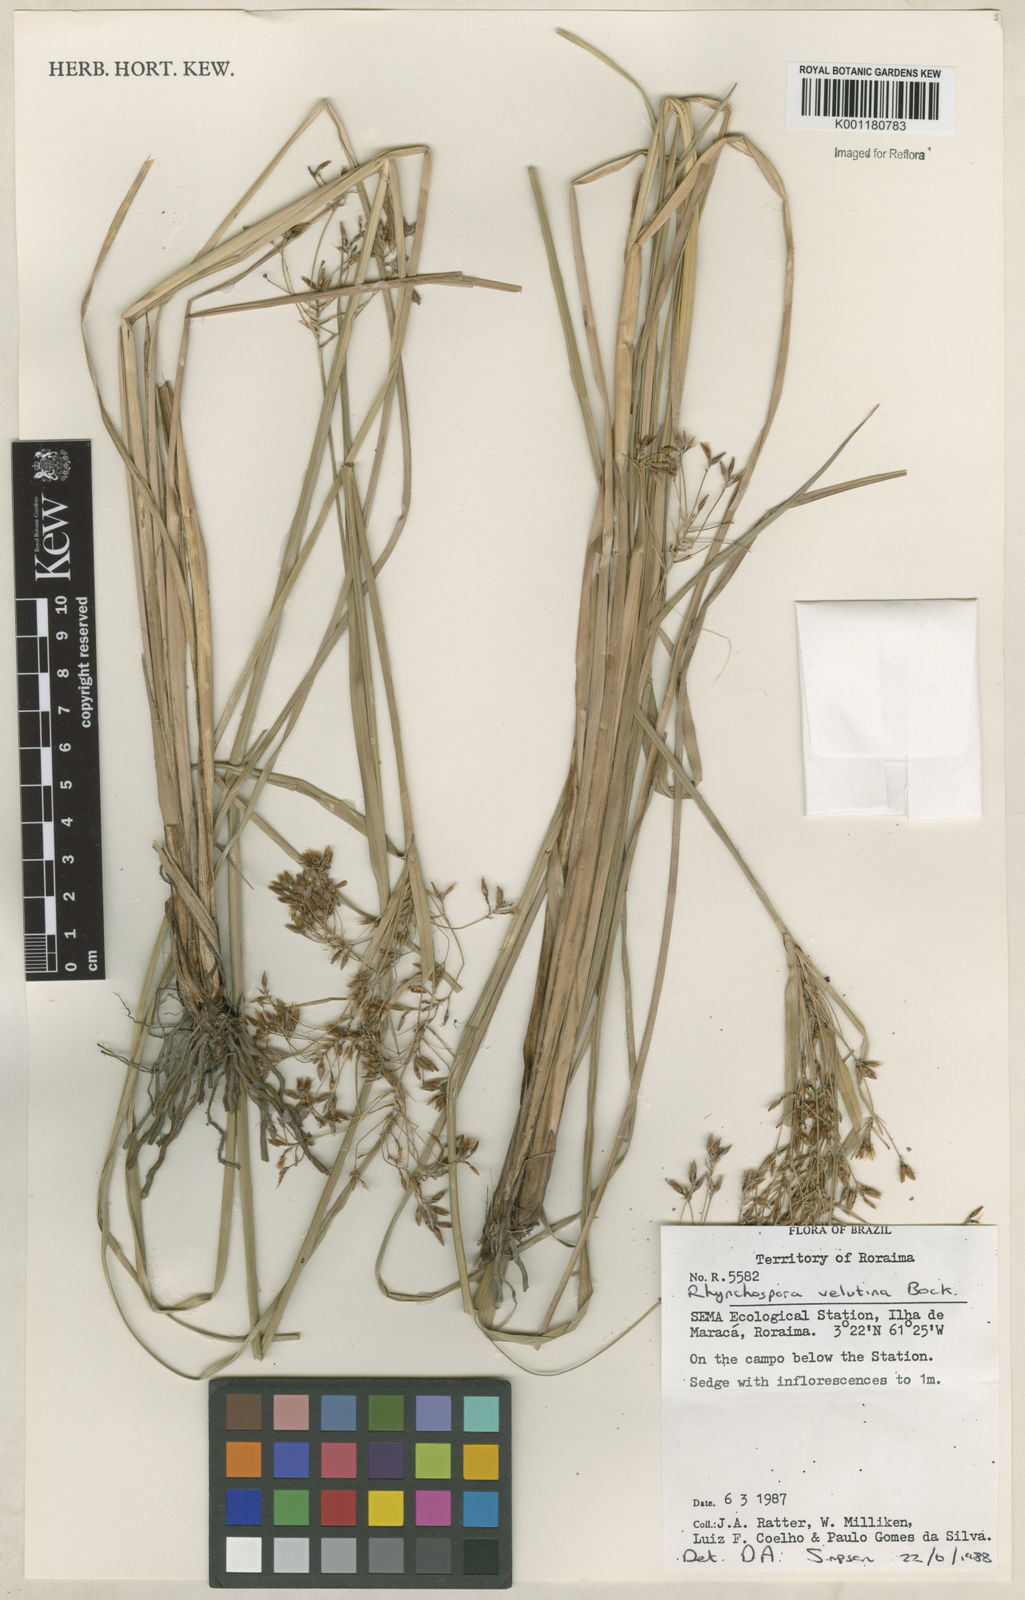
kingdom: Plantae
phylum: Tracheophyta
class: Liliopsida
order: Poales
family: Cyperaceae
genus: Rhynchospora
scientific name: Rhynchospora velutina
